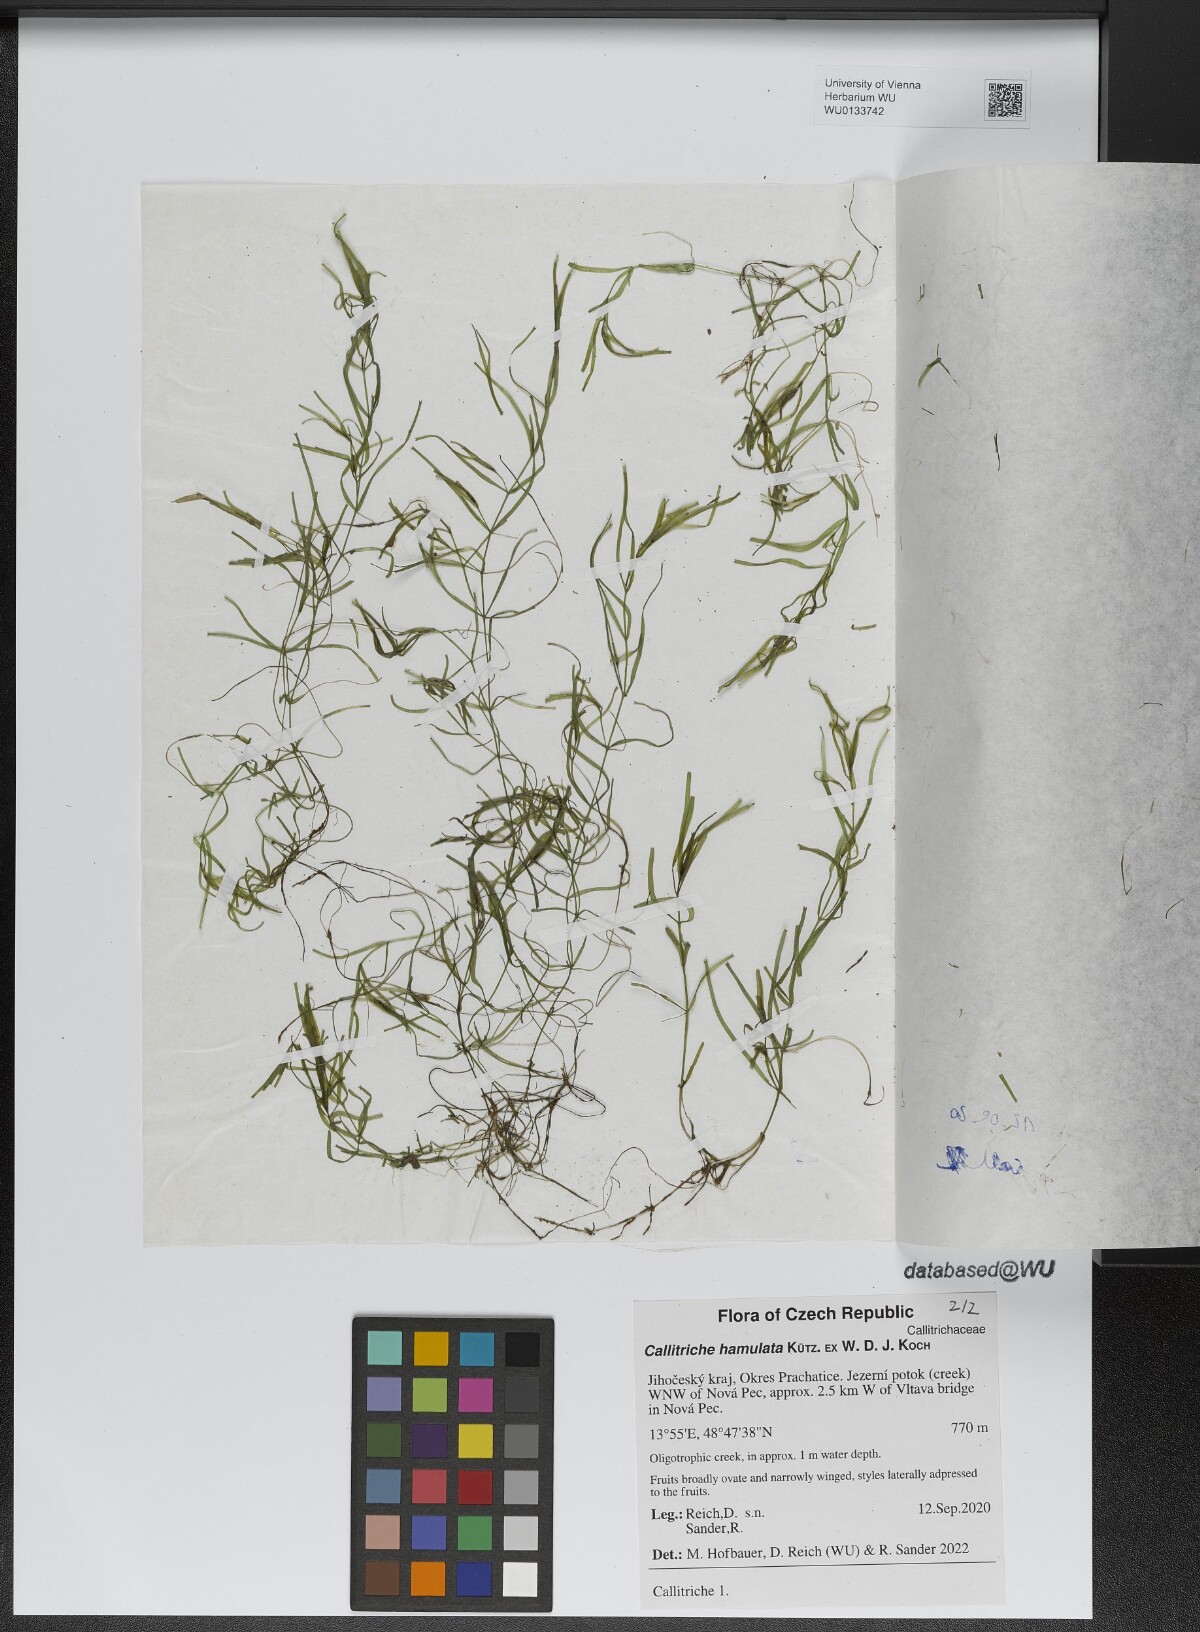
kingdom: Plantae
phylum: Tracheophyta
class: Magnoliopsida
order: Lamiales
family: Plantaginaceae
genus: Callitriche
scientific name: Callitriche hamulata
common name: Intermediate water-starwort
